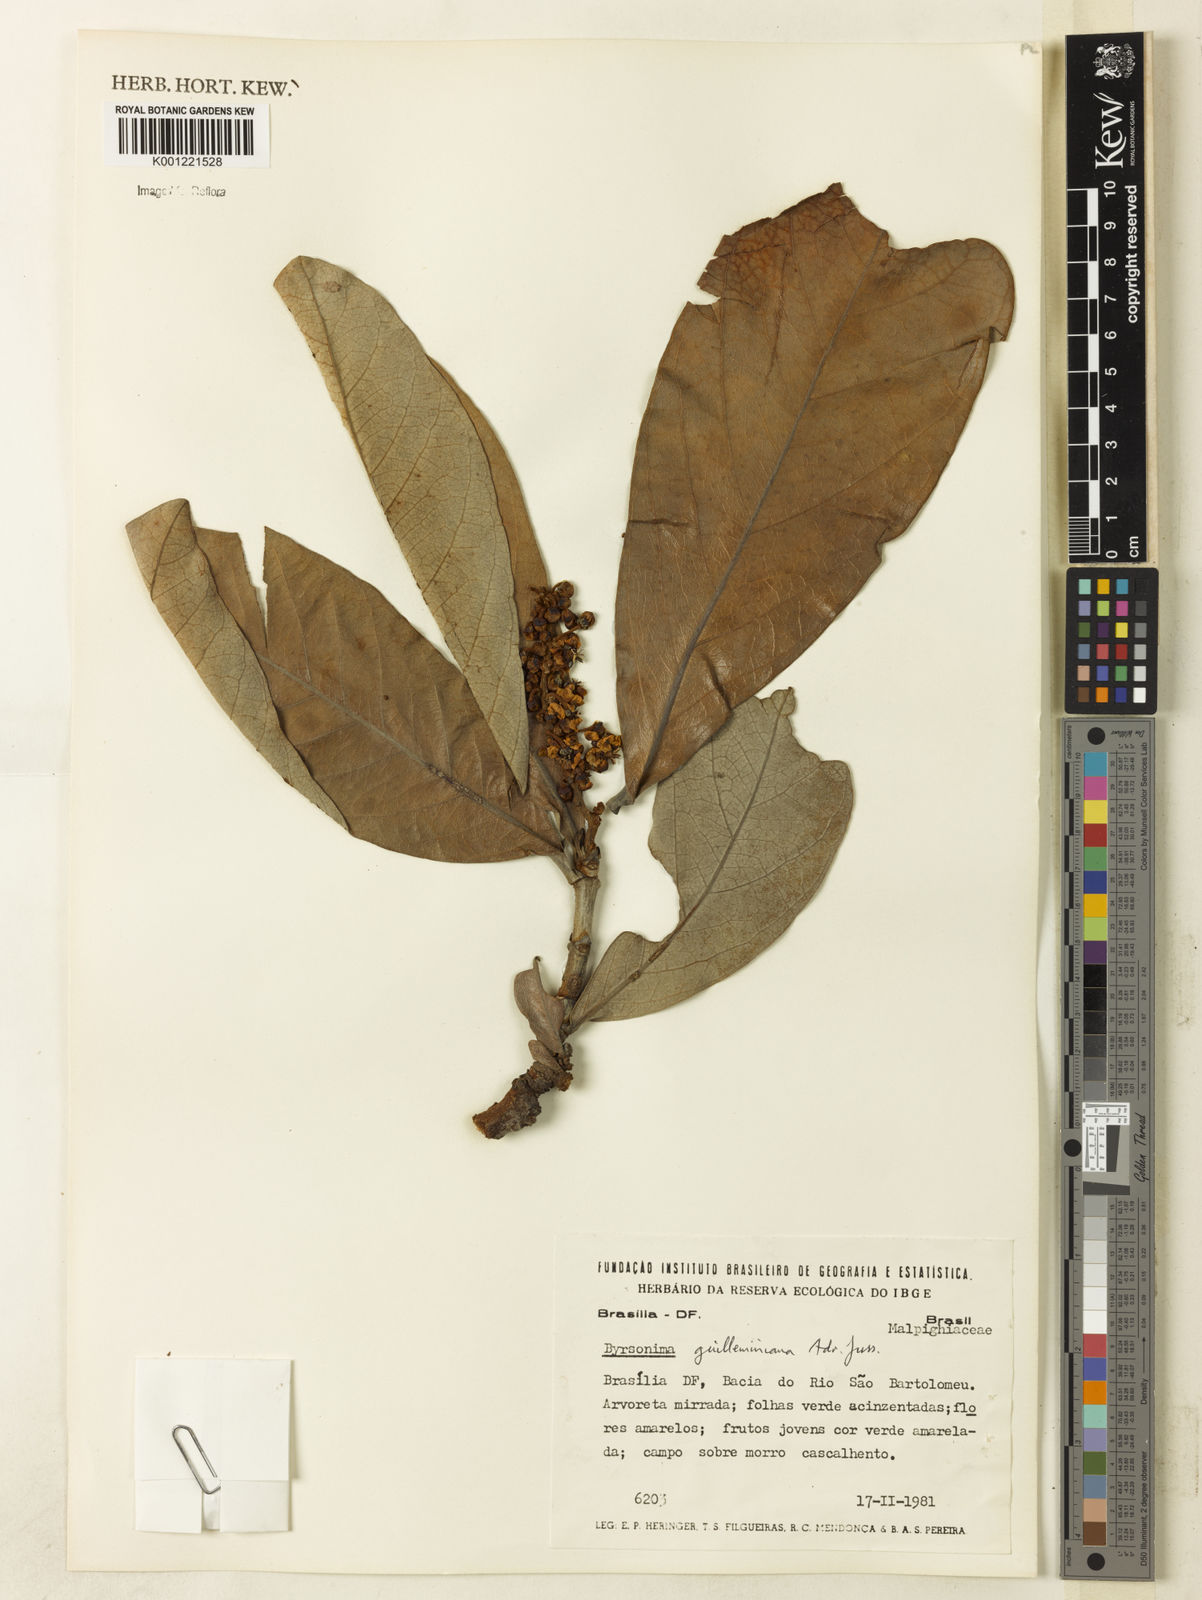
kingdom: Plantae
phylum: Tracheophyta
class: Magnoliopsida
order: Malpighiales
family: Malpighiaceae
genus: Byrsonima
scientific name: Byrsonima guilleminiana
